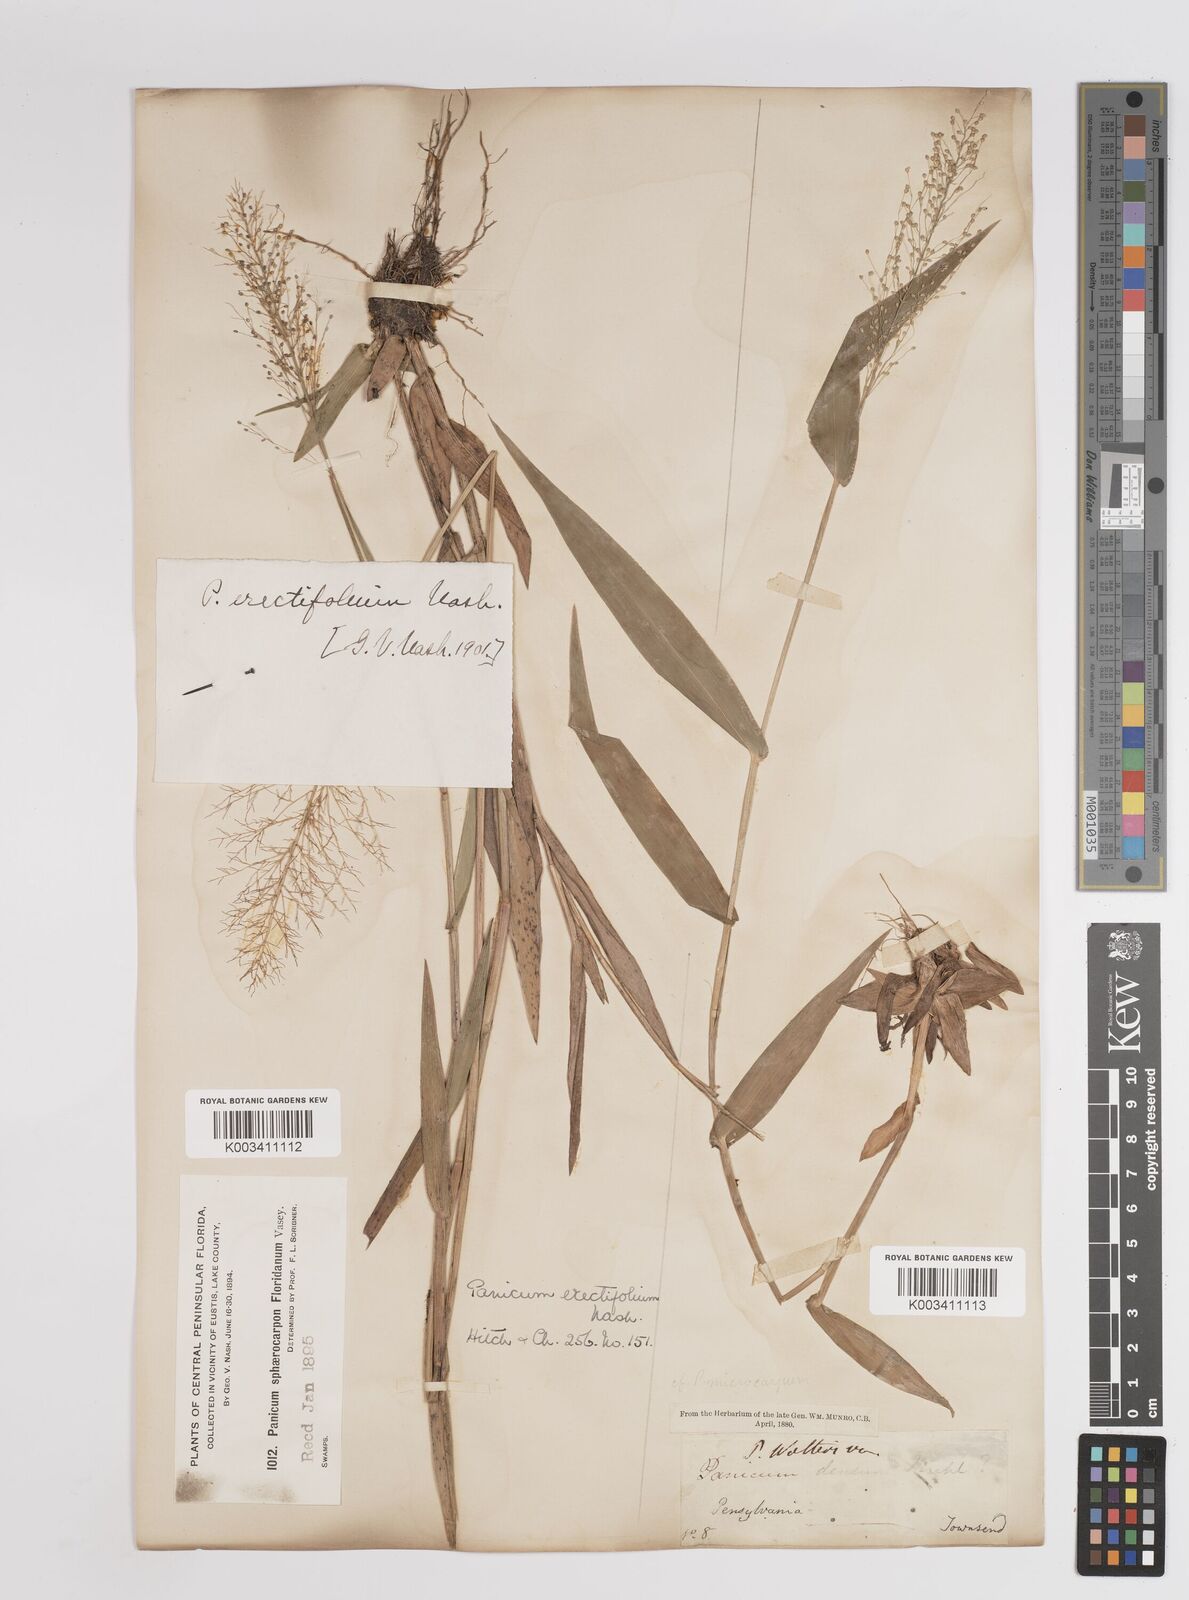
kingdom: Plantae
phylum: Tracheophyta
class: Liliopsida
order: Poales
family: Poaceae
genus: Dichanthelium
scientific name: Dichanthelium erectifolium
